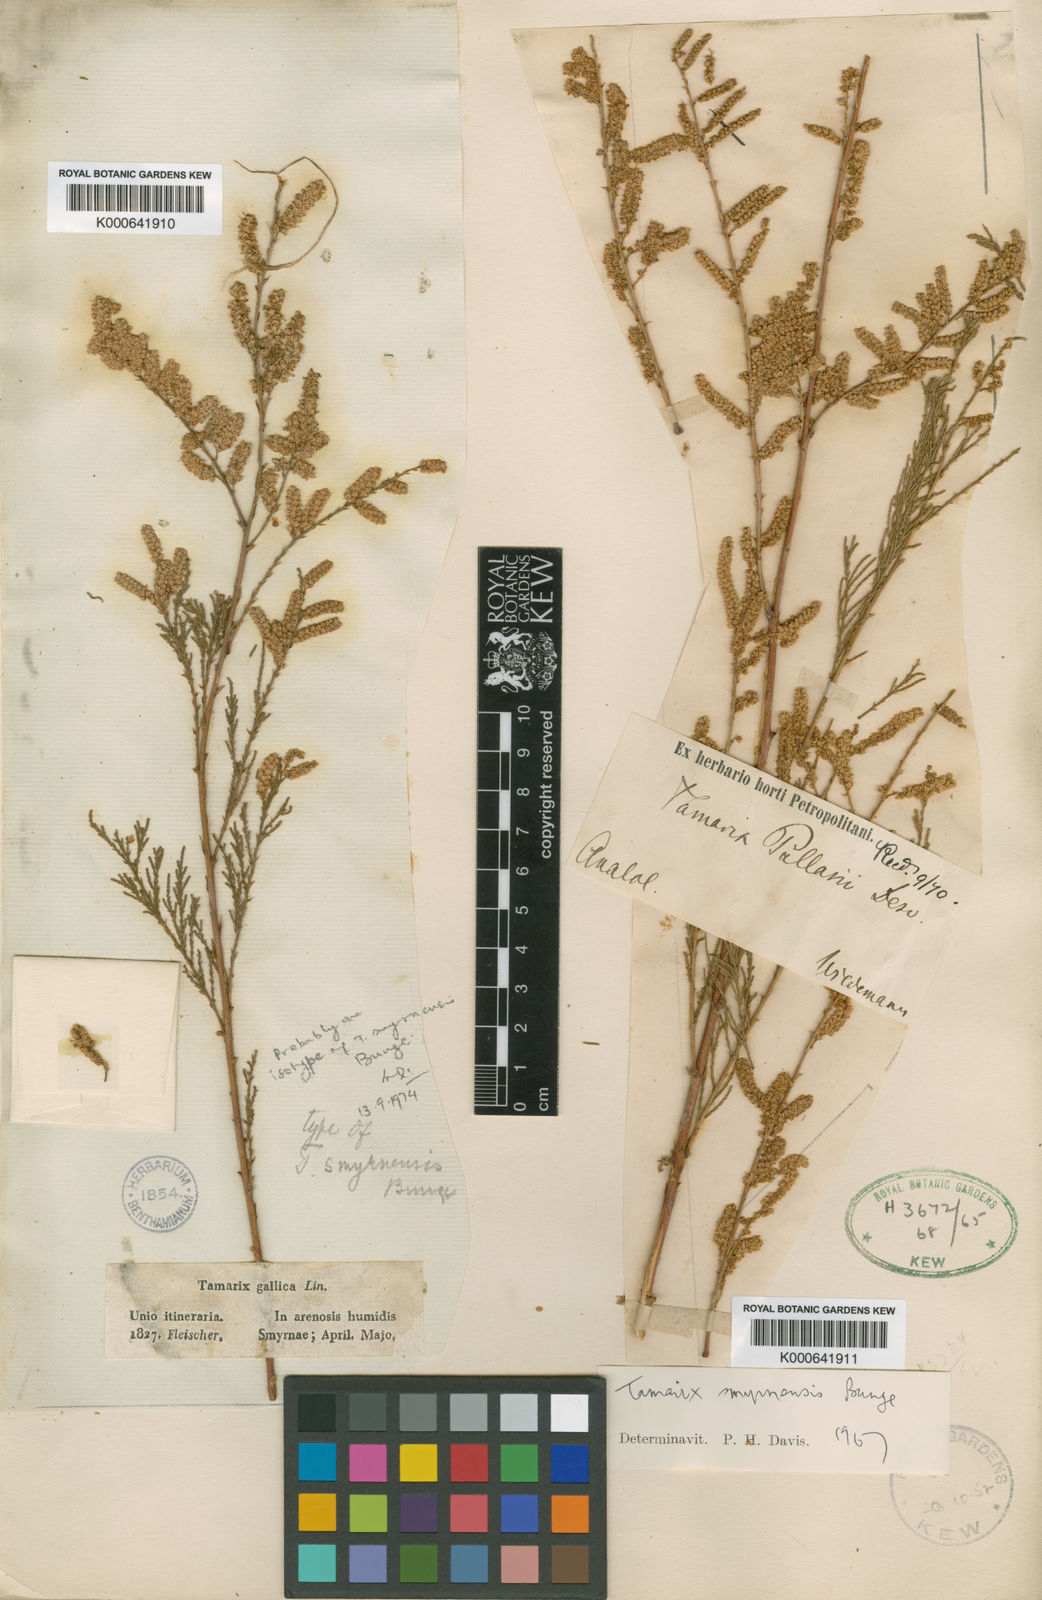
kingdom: Plantae
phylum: Tracheophyta
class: Magnoliopsida
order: Caryophyllales
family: Tamaricaceae
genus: Tamarix
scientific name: Tamarix smyrnensis
